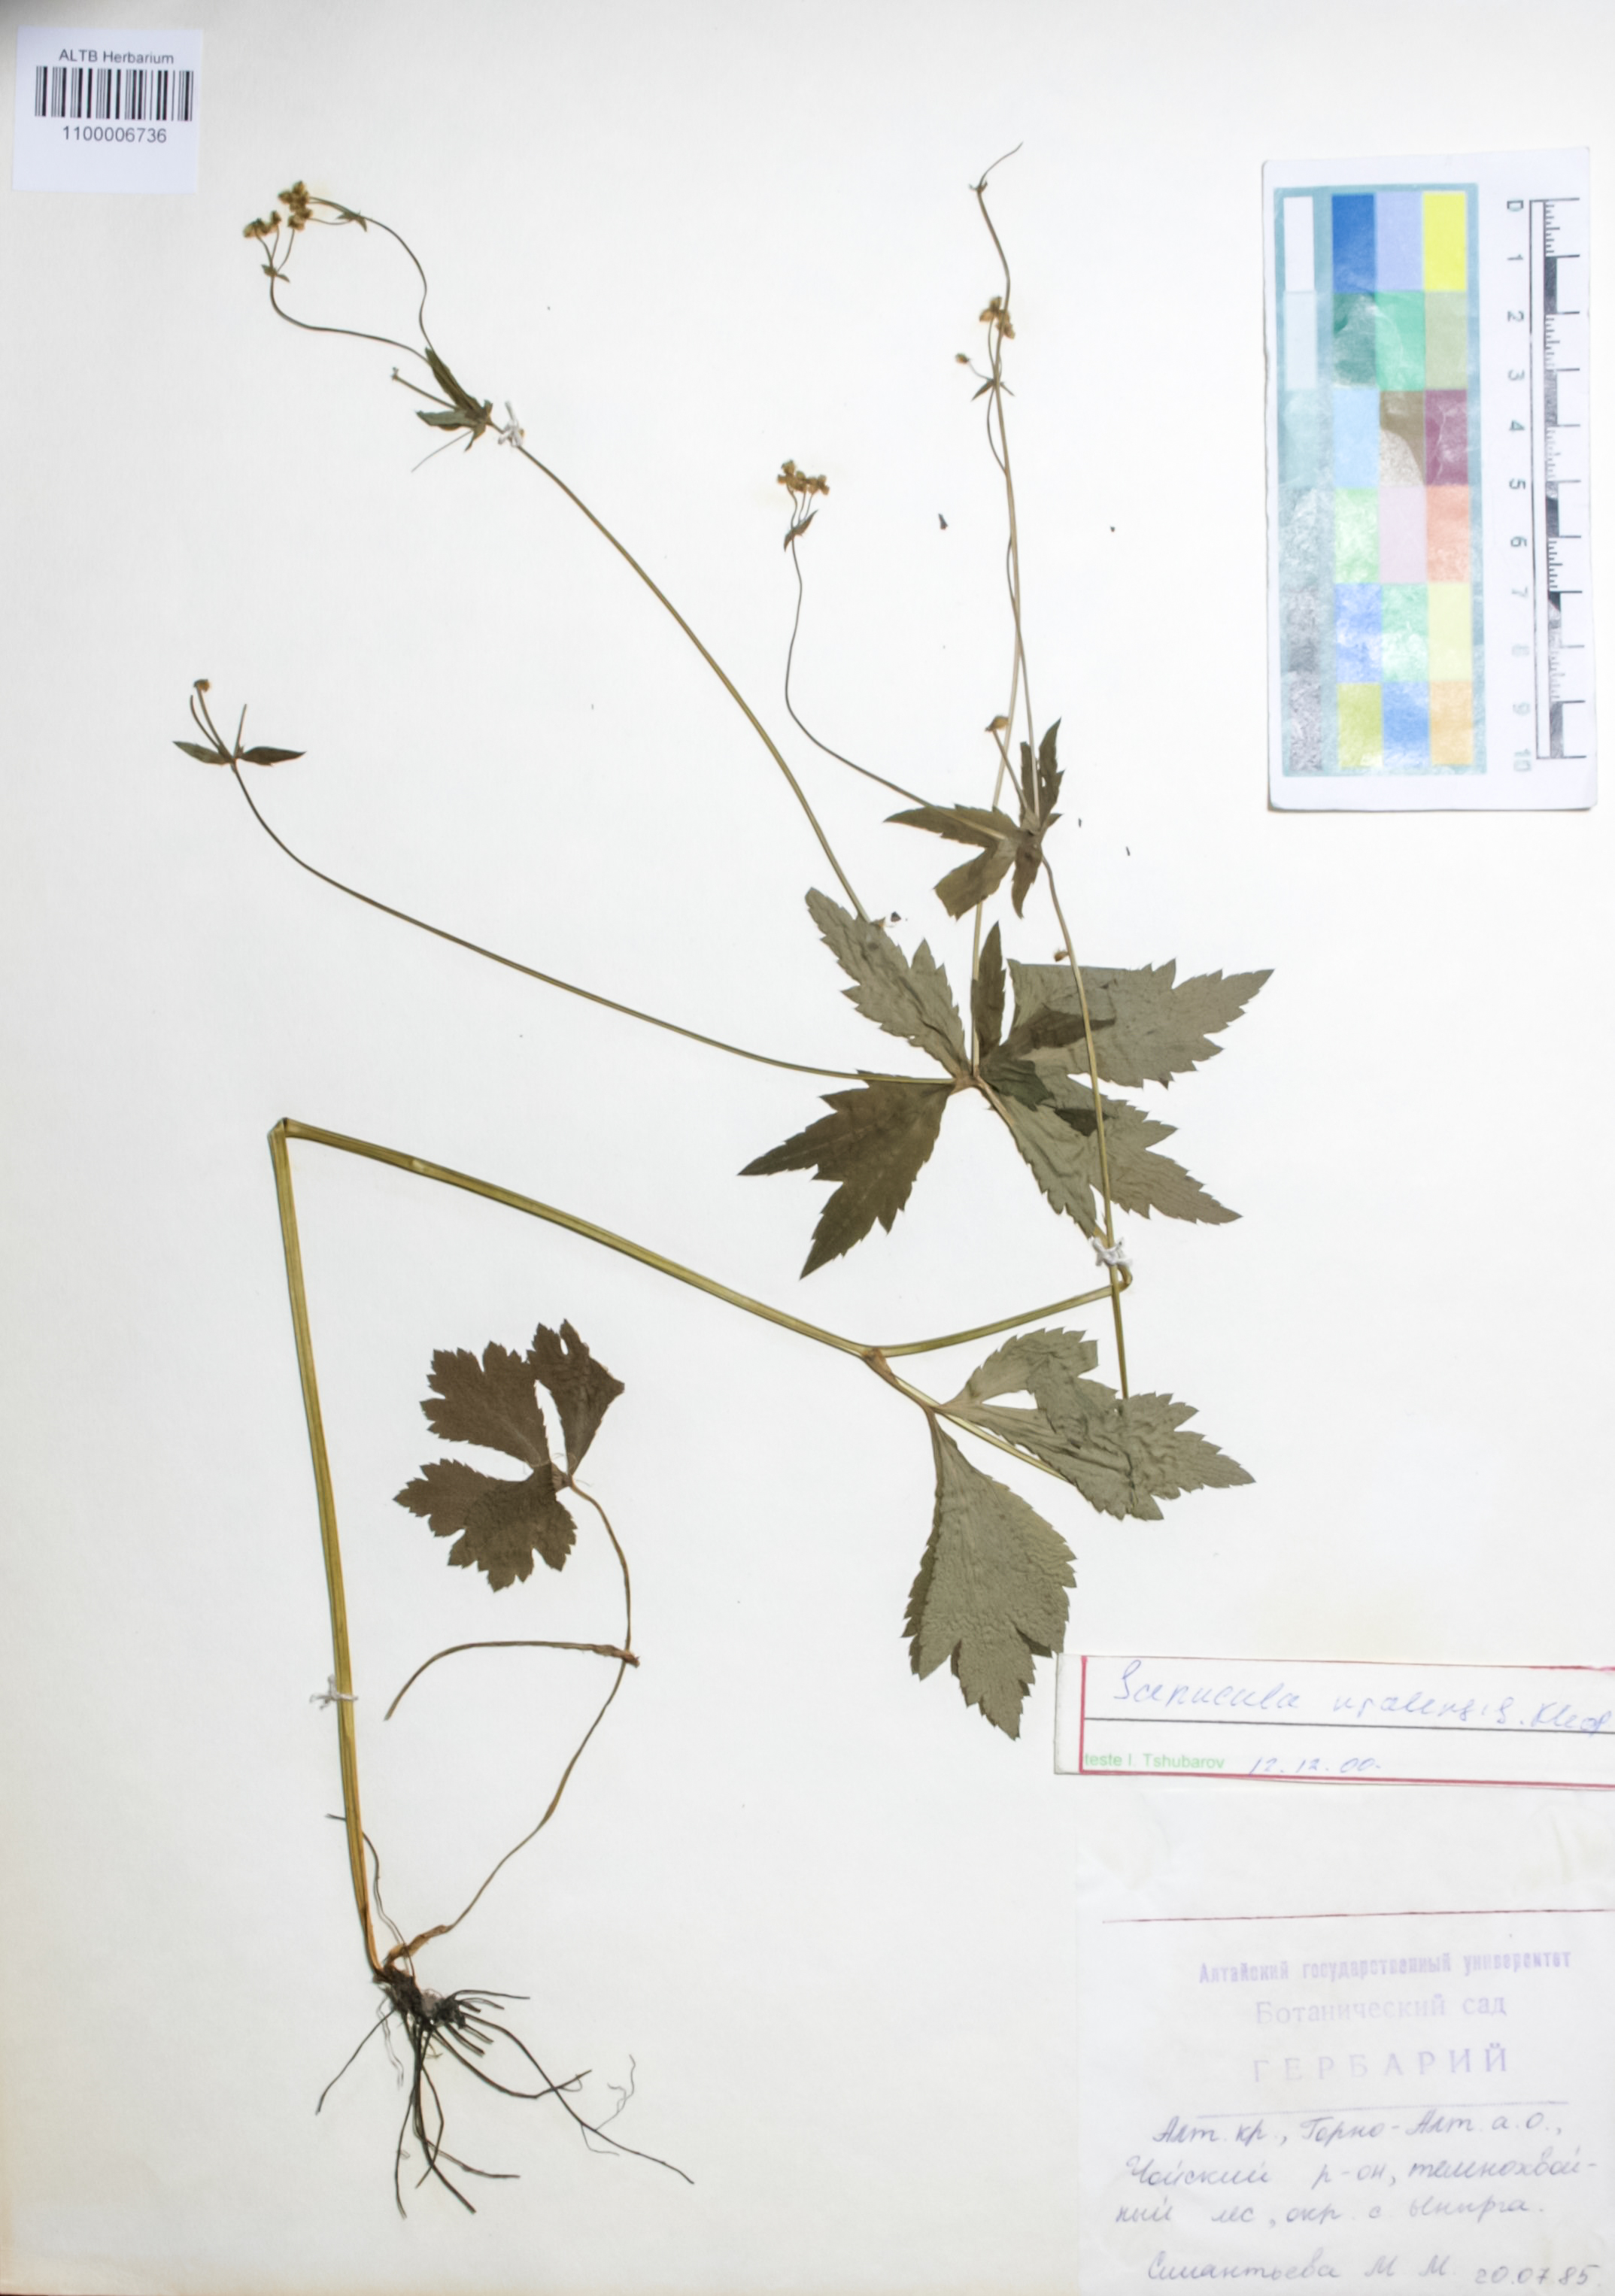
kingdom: Plantae
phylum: Tracheophyta
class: Magnoliopsida
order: Apiales
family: Apiaceae
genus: Sanicula
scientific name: Sanicula giraldii
